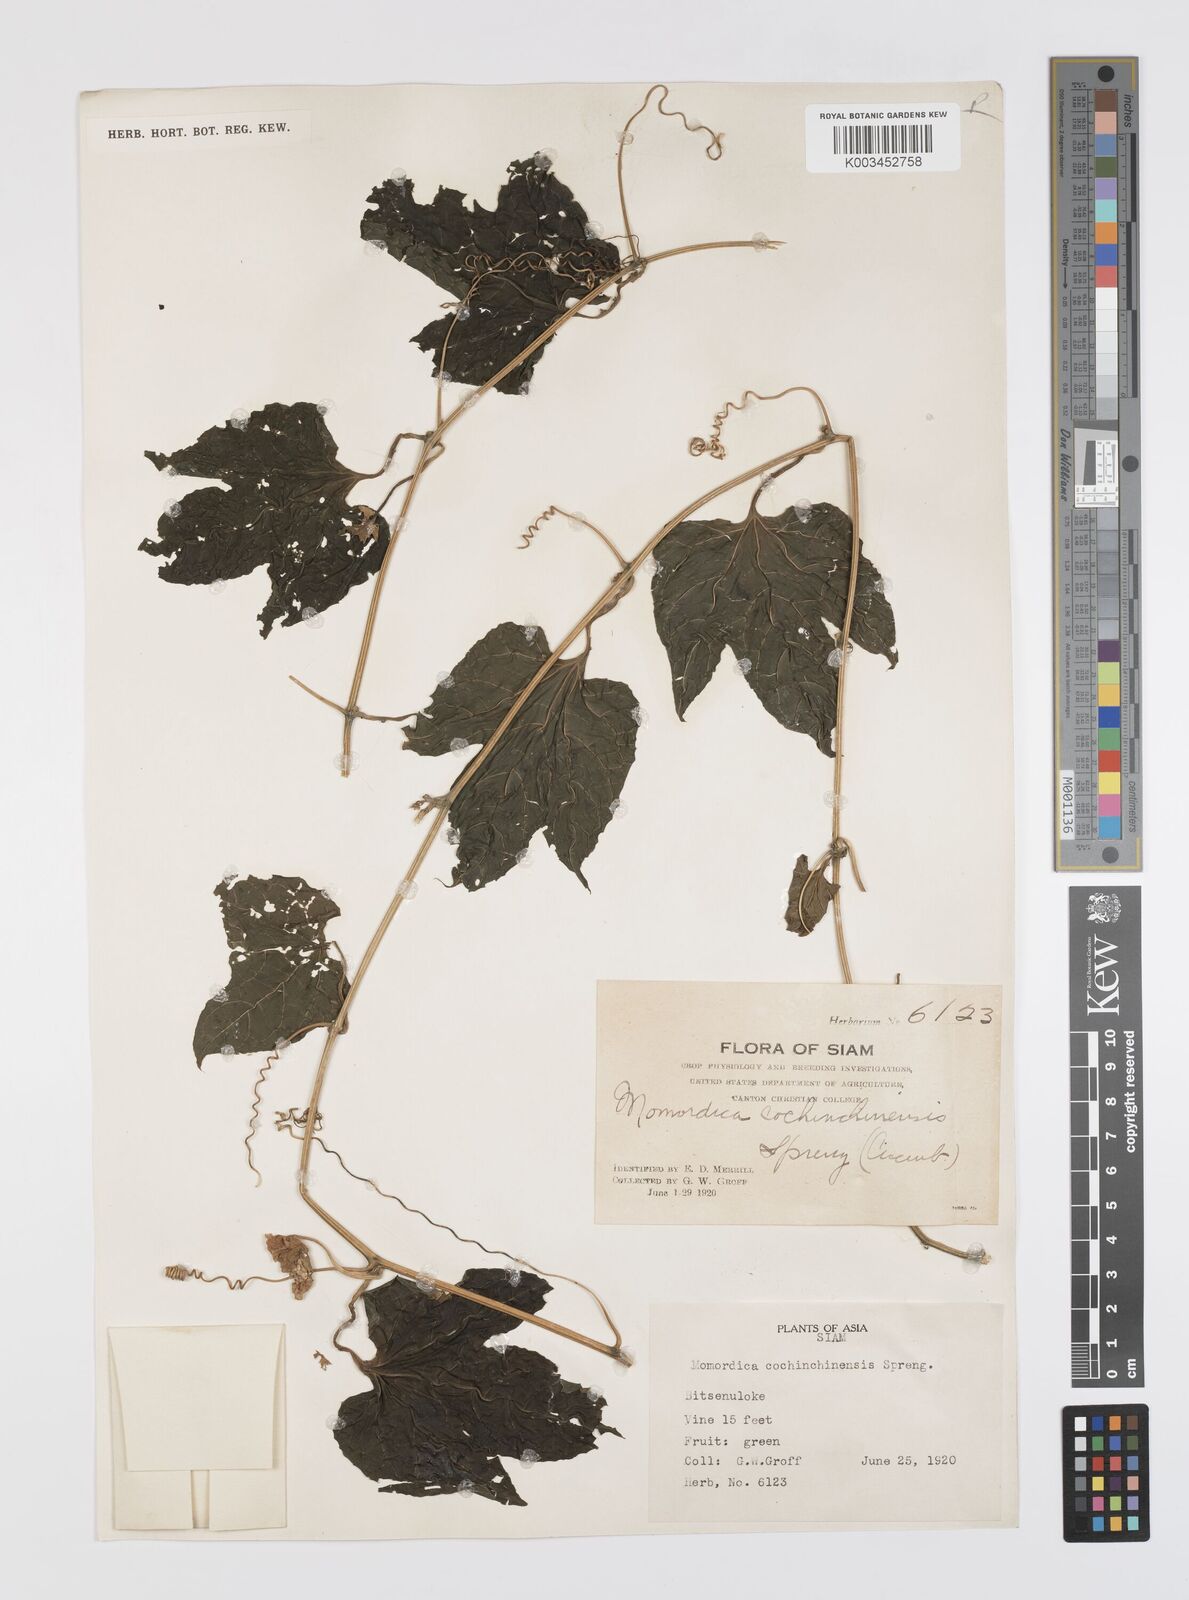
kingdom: Plantae
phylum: Tracheophyta
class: Magnoliopsida
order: Cucurbitales
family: Cucurbitaceae
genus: Momordica
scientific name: Momordica cochinchinensis
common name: Chinese bitter-cucumber
